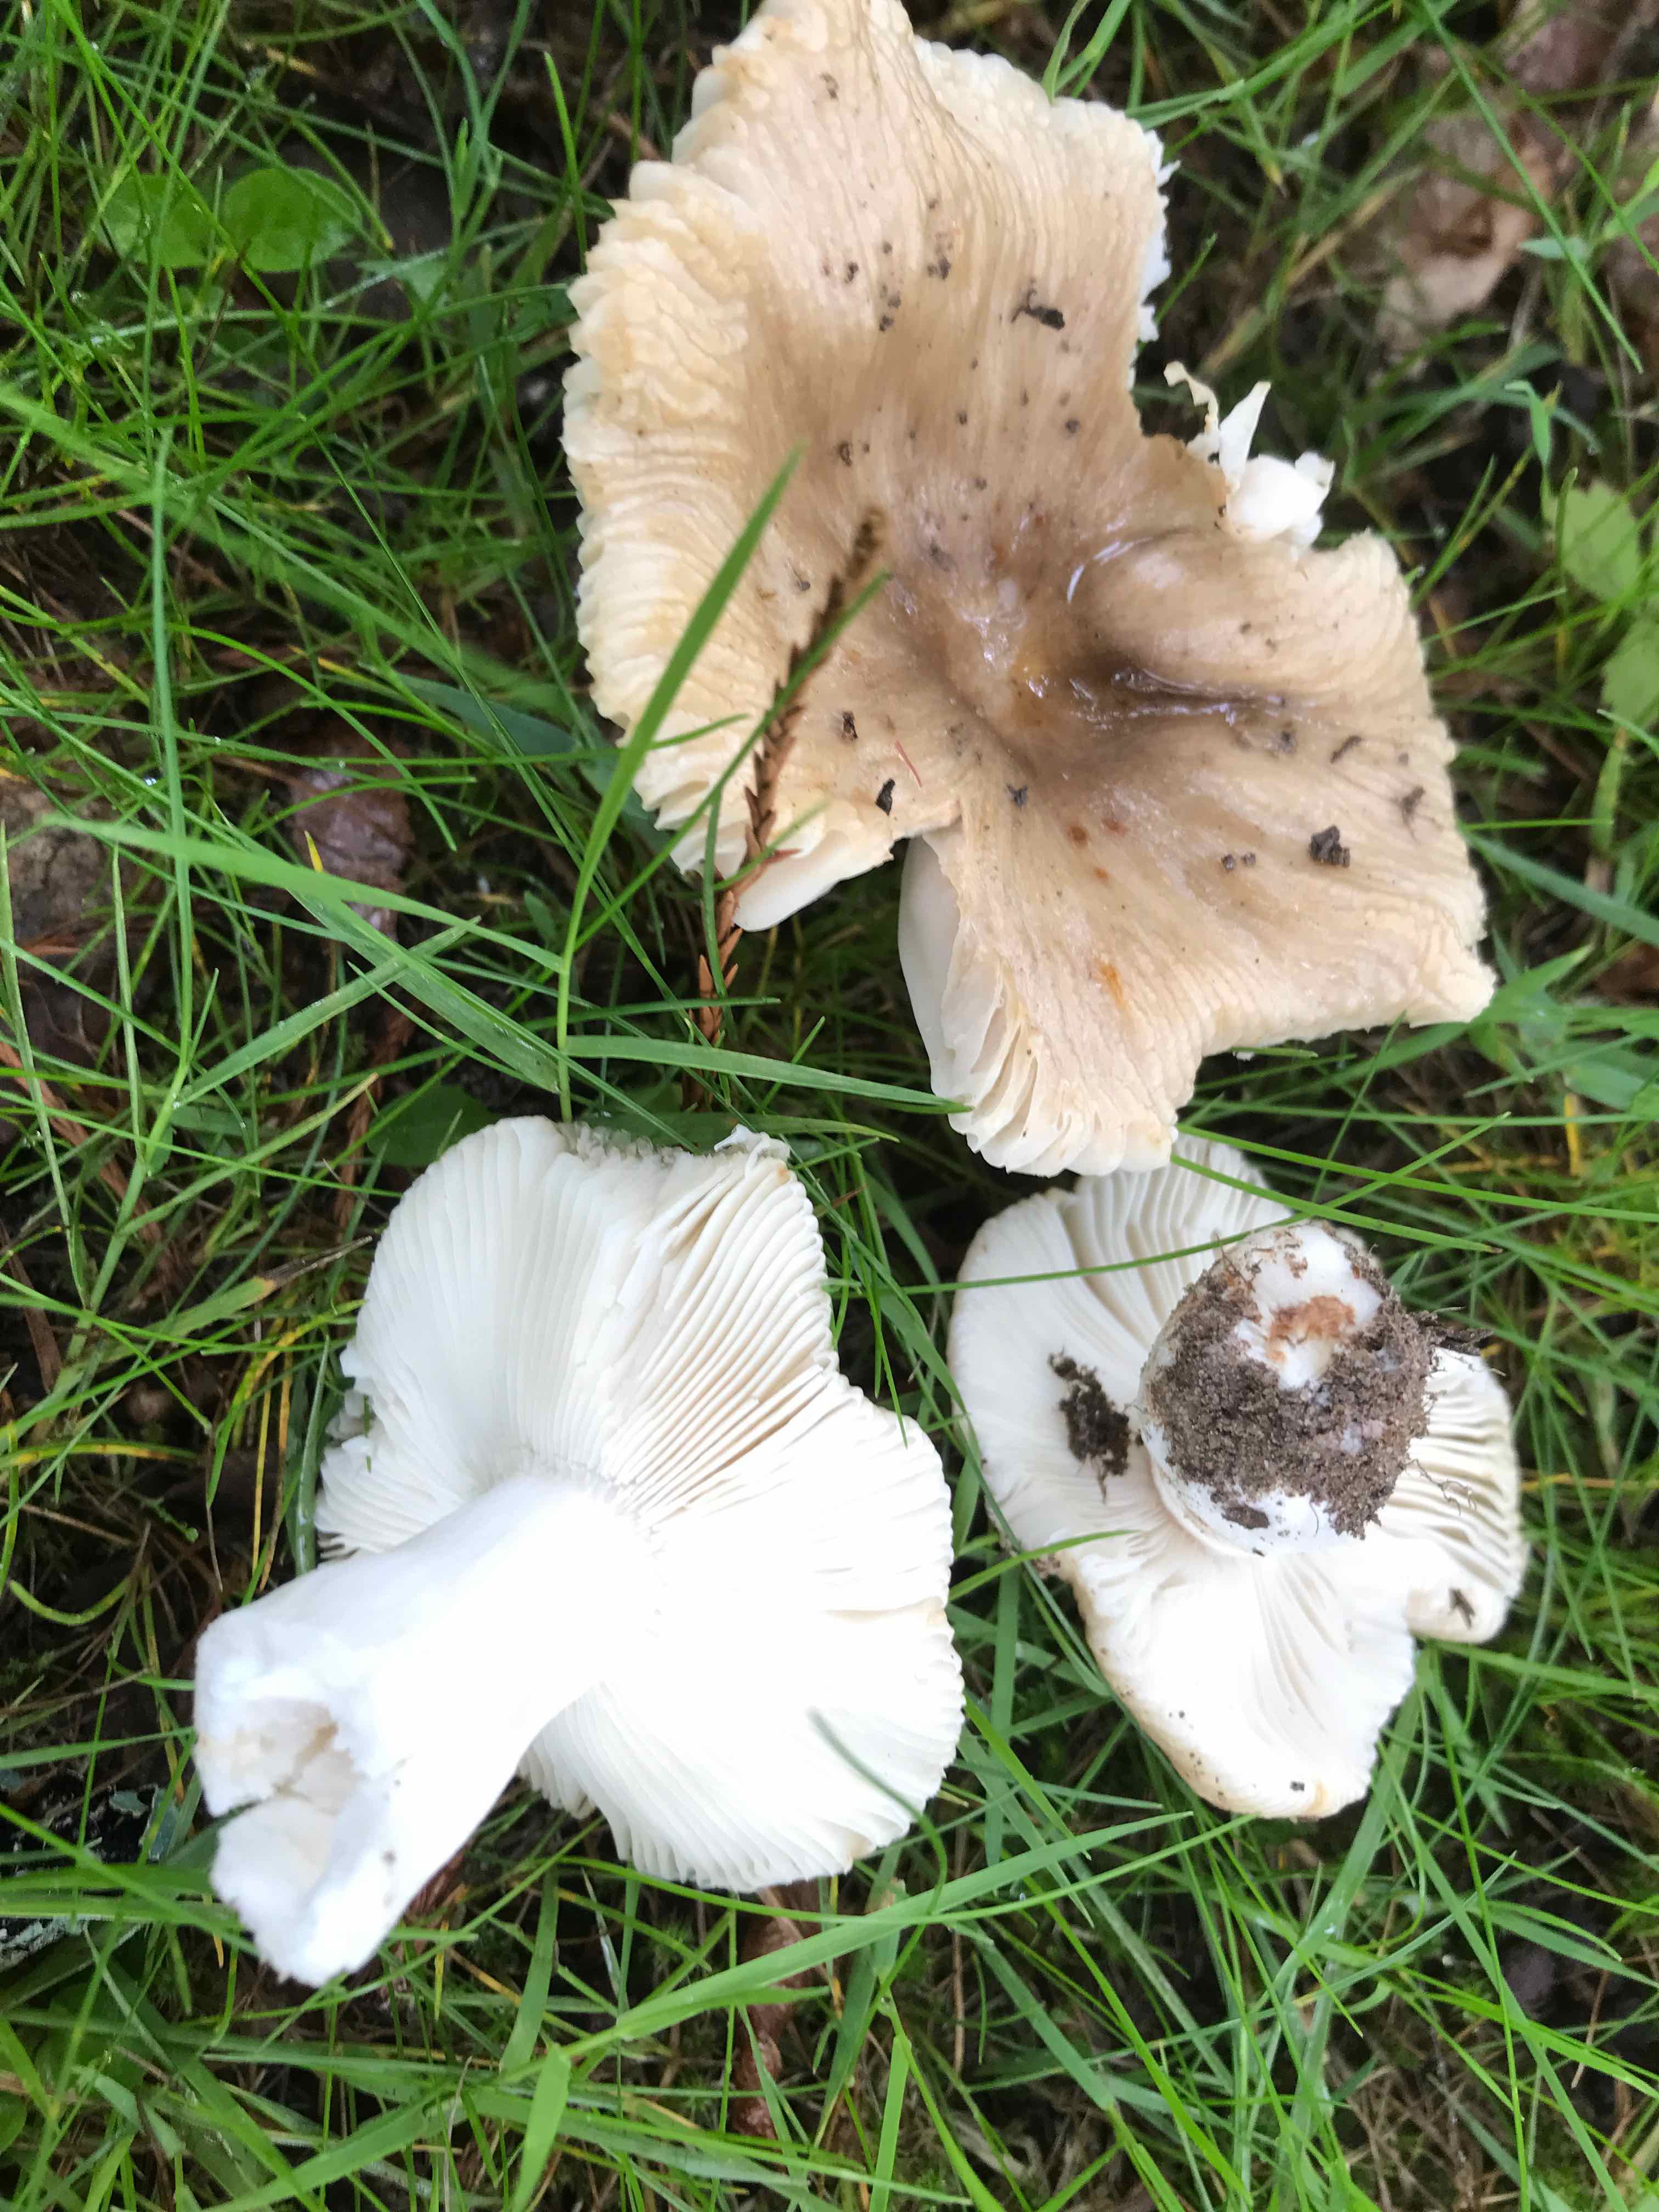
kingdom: Fungi
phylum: Basidiomycota
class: Agaricomycetes
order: Russulales
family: Russulaceae
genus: Russula
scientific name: Russula recondita
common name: mild kam-skørhat
